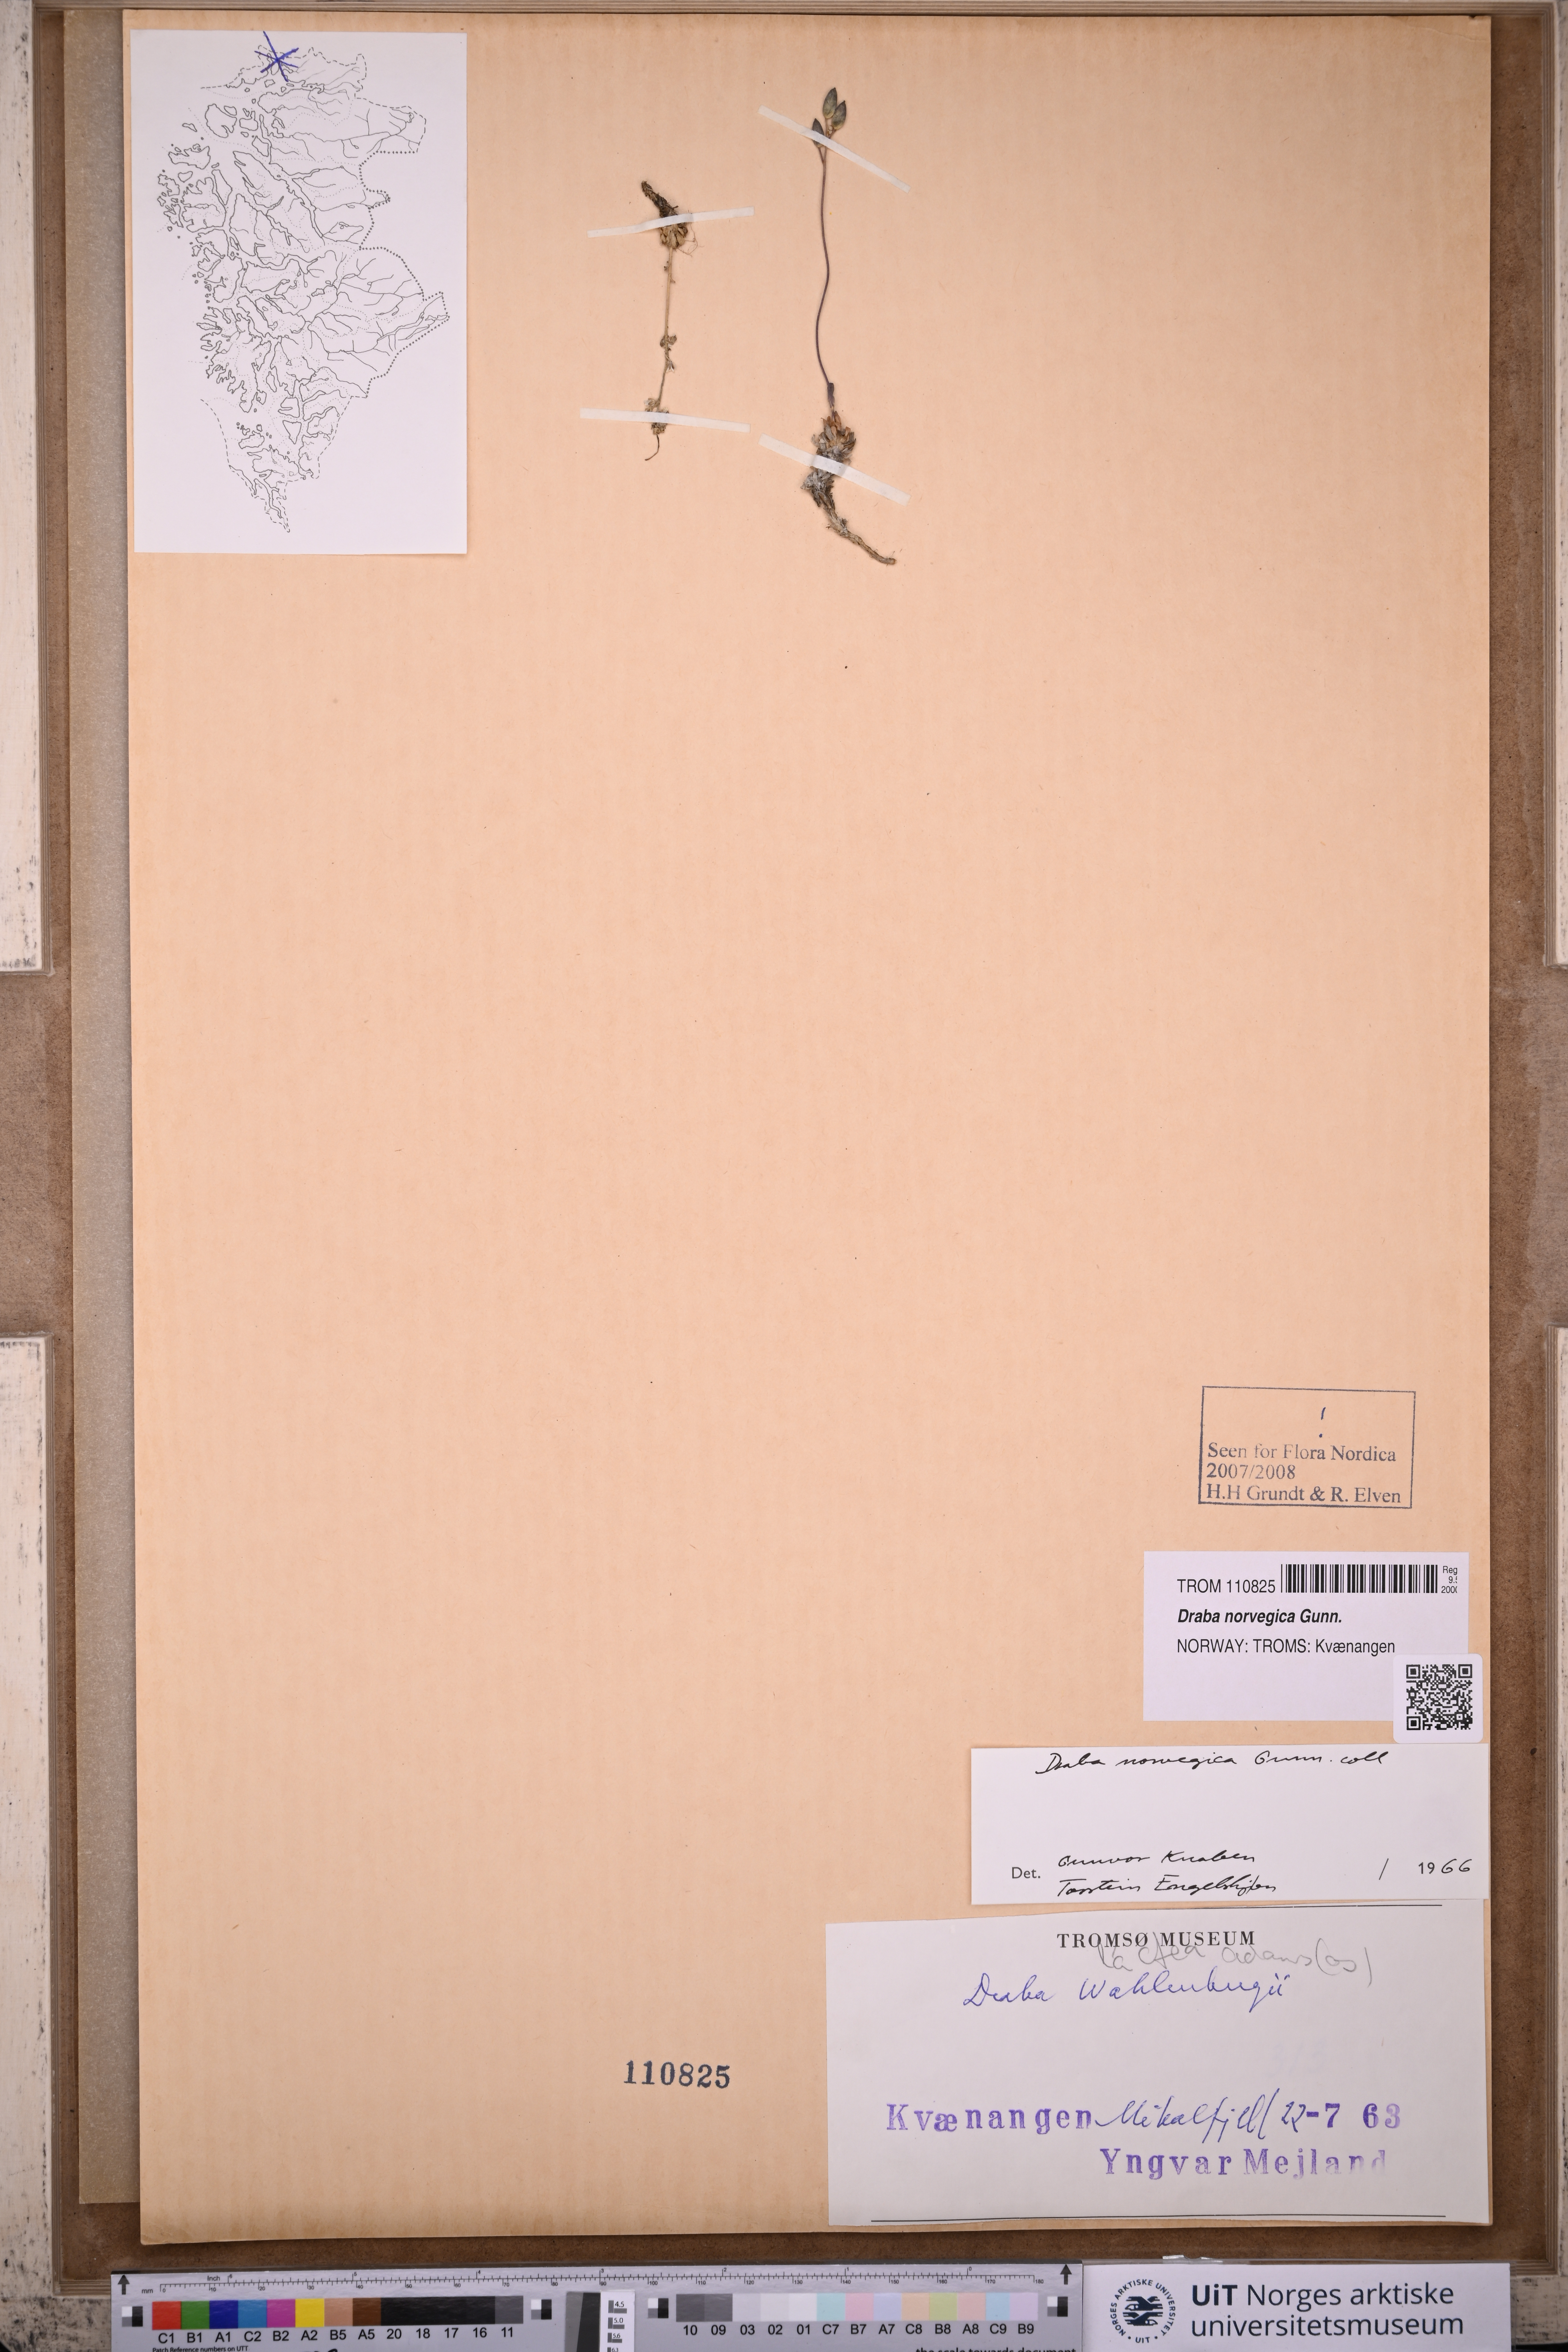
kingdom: Plantae
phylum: Tracheophyta
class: Magnoliopsida
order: Brassicales
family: Brassicaceae
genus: Draba
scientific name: Draba norvegica
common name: Rock whitlowgrass
